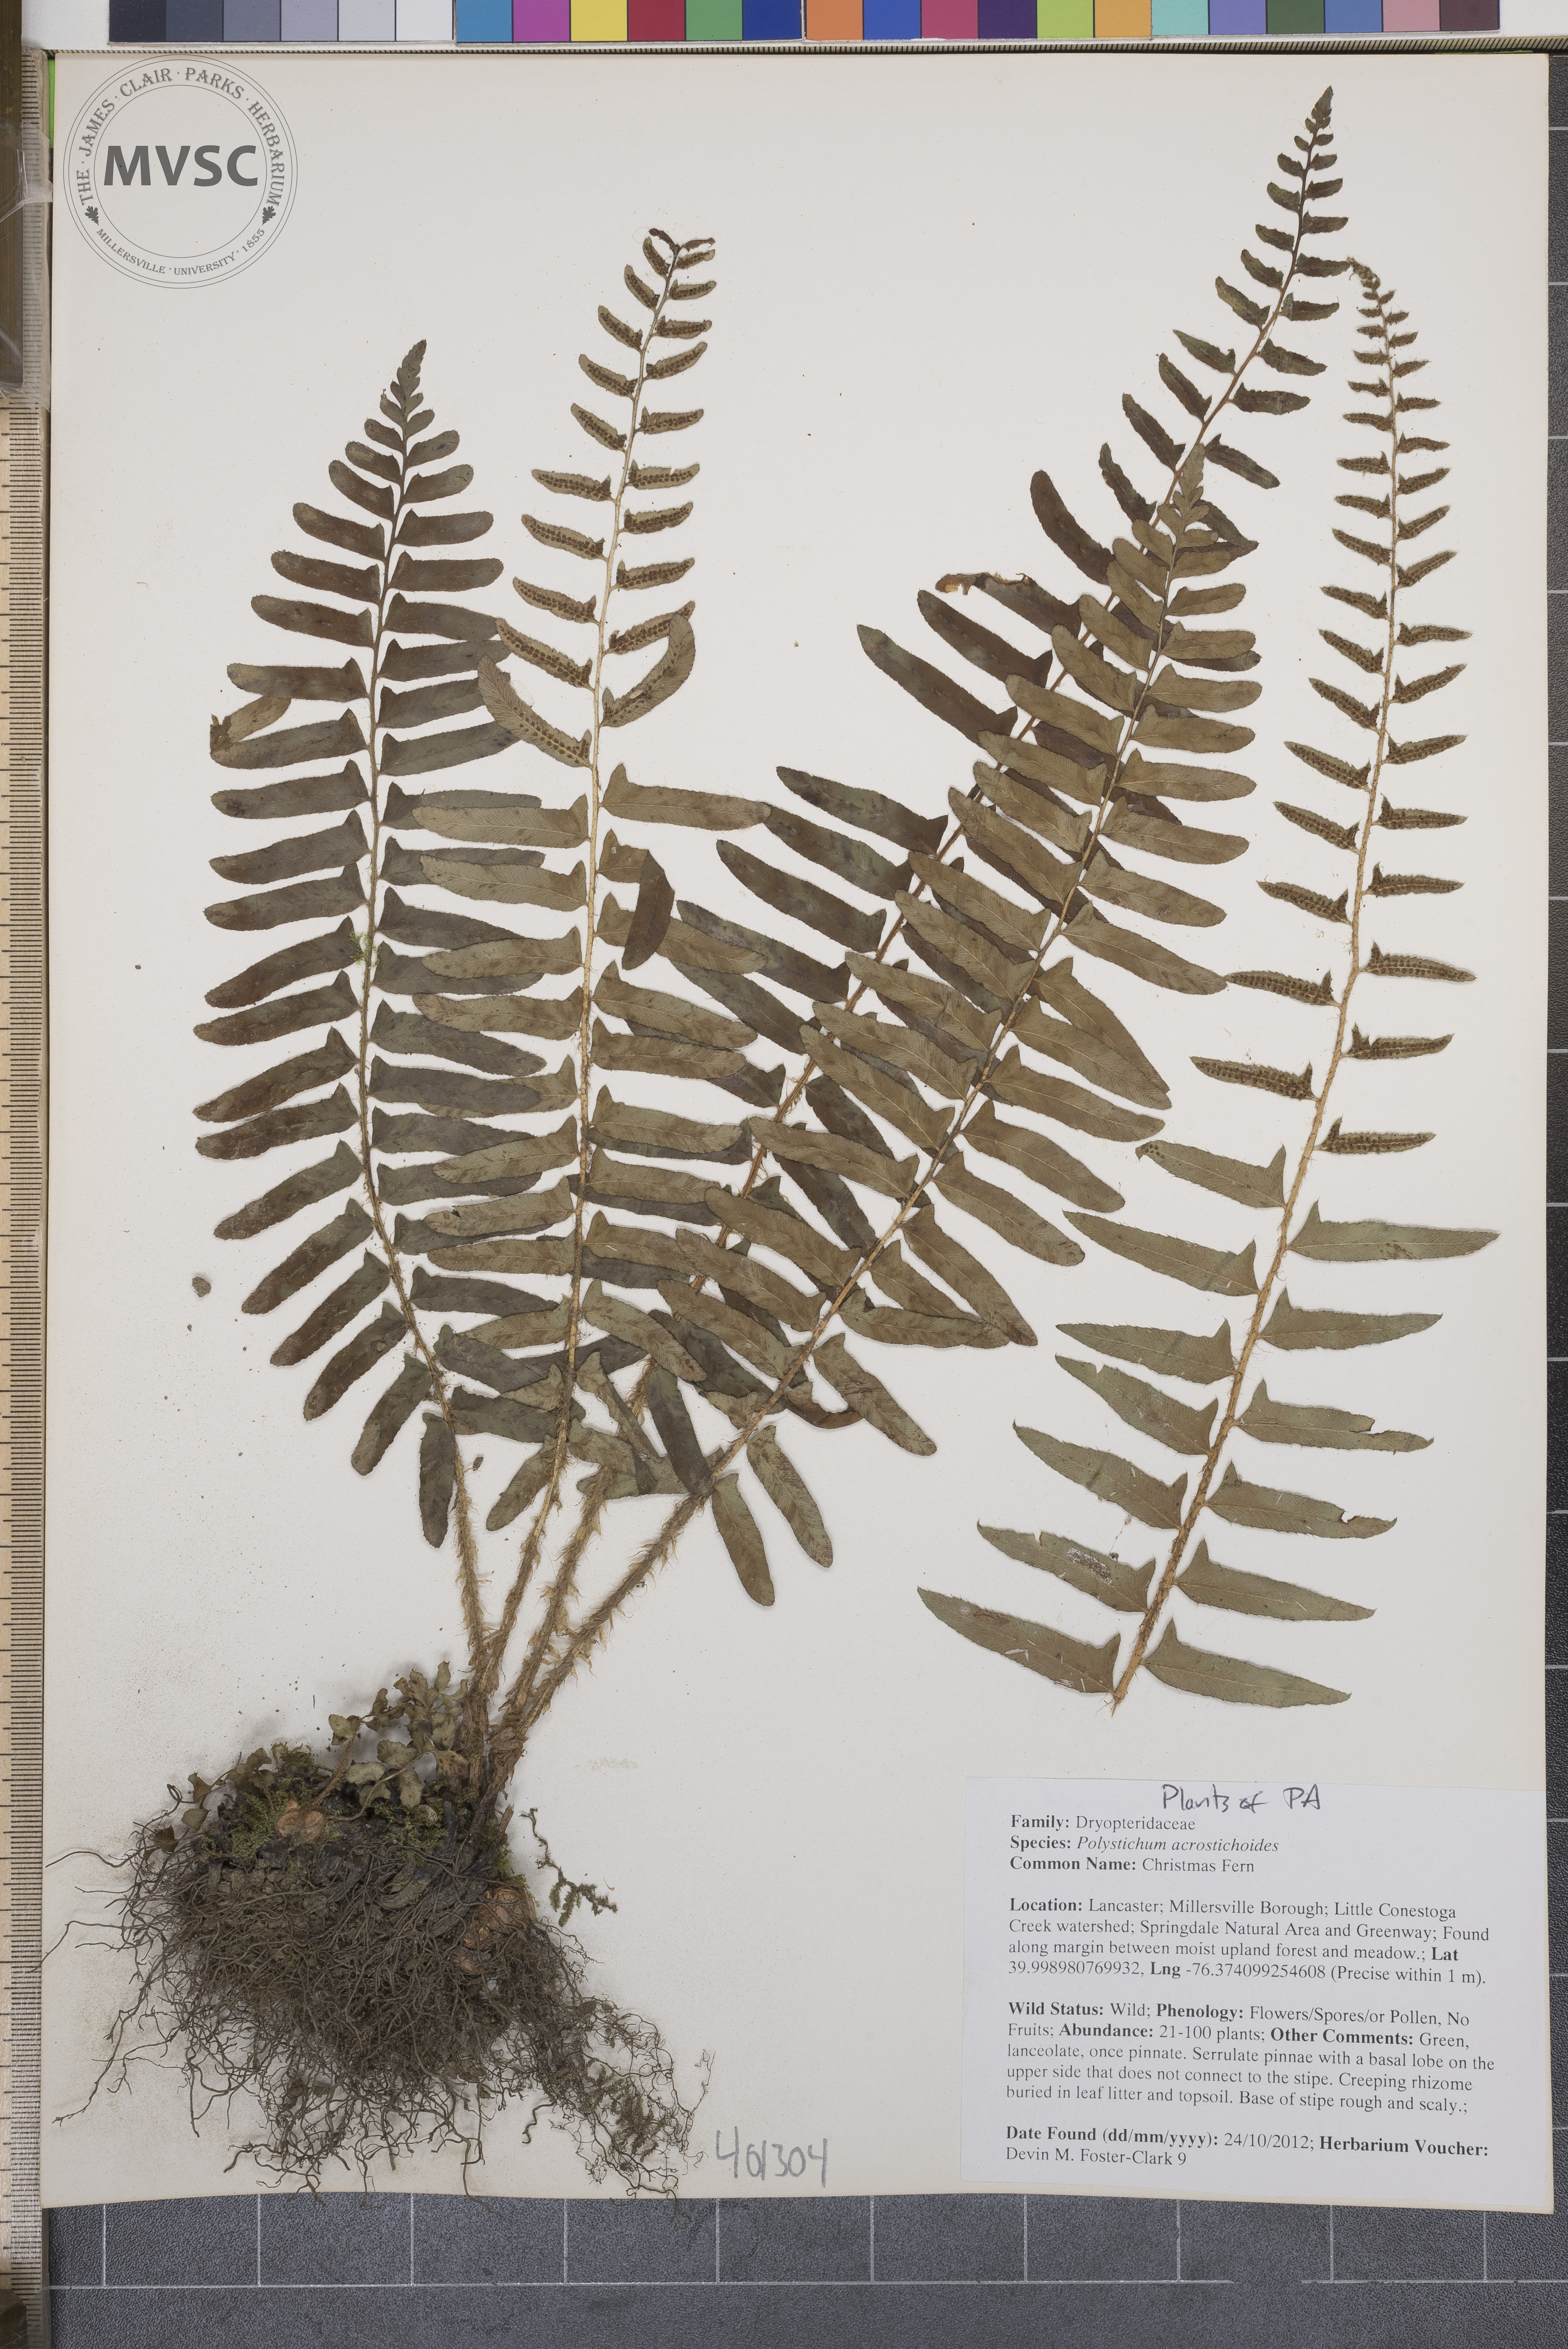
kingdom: Plantae
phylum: Tracheophyta
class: Polypodiopsida
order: Polypodiales
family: Dryopteridaceae
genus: Polystichum
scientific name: Polystichum acrostichoides
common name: Christmas Fern
